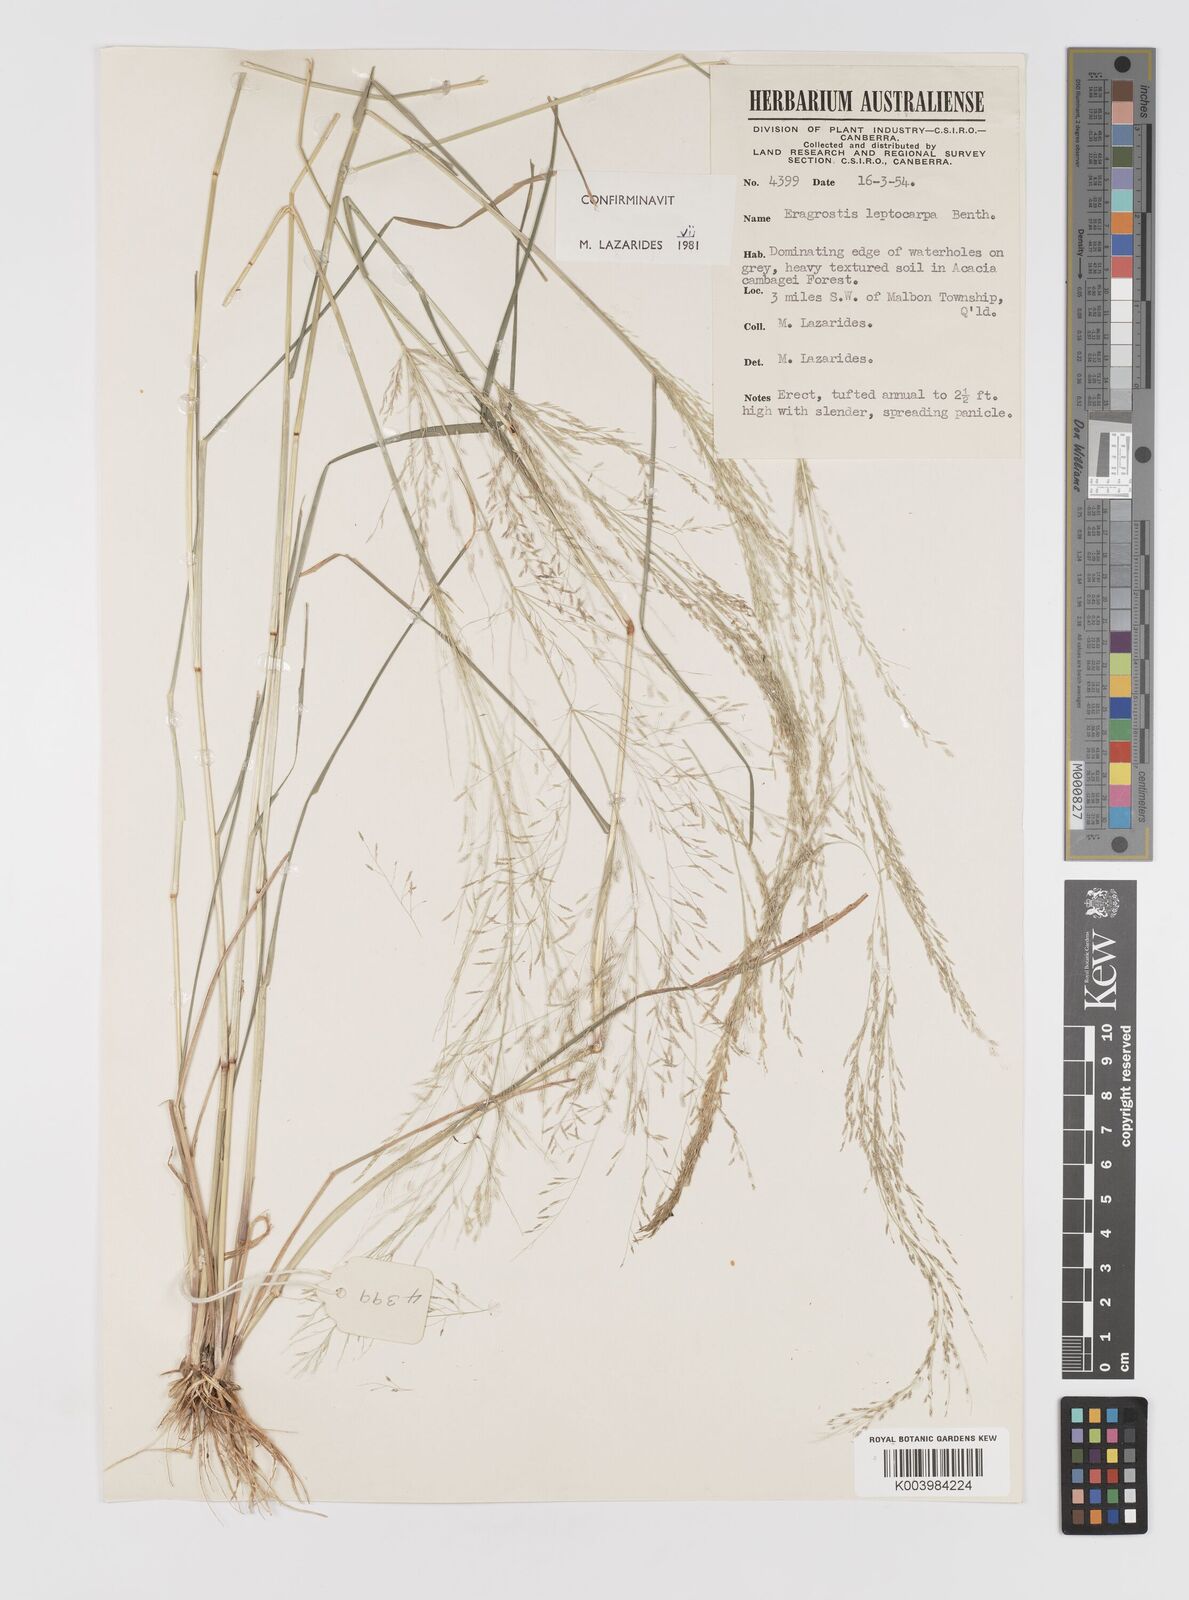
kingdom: Plantae
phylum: Tracheophyta
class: Liliopsida
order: Poales
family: Poaceae
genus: Eragrostis
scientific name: Eragrostis leptocarpa
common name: Drooping love grass
